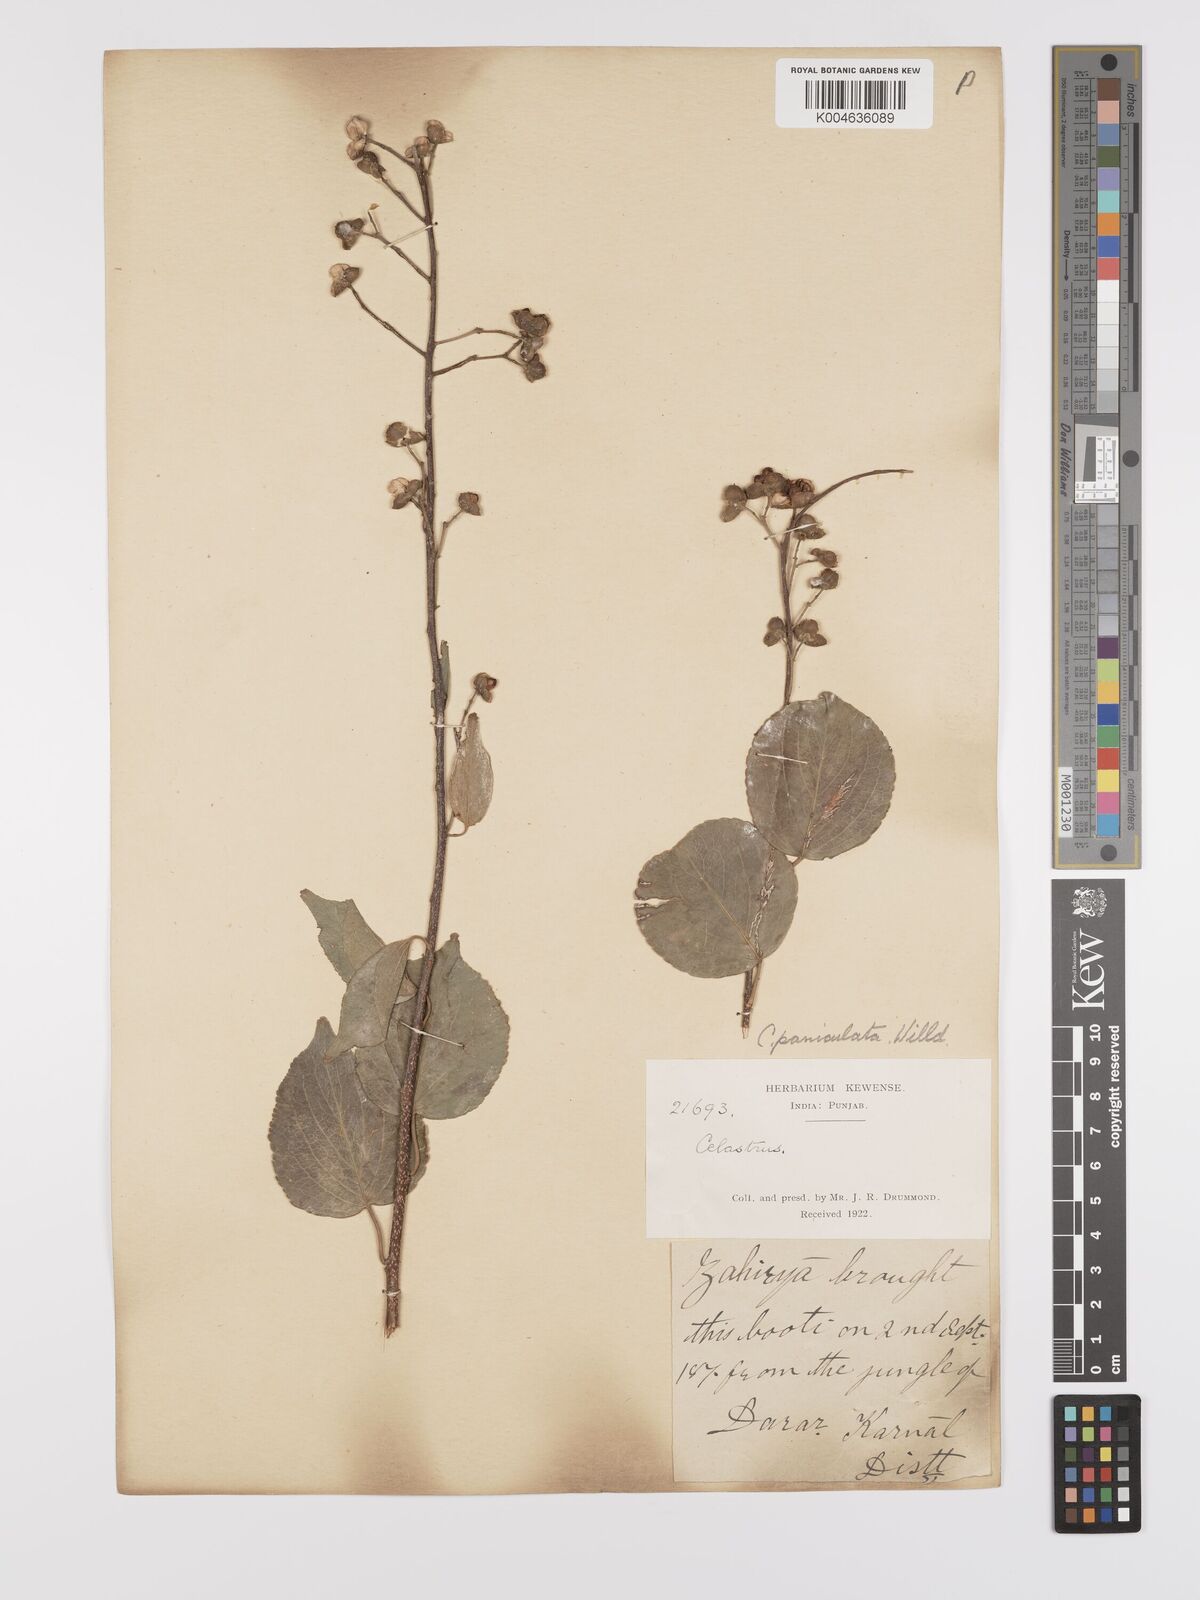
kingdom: Plantae
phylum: Tracheophyta
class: Magnoliopsida
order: Celastrales
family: Celastraceae
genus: Celastrus
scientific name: Celastrus paniculatus
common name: Oriental bittersweet; staff vine
